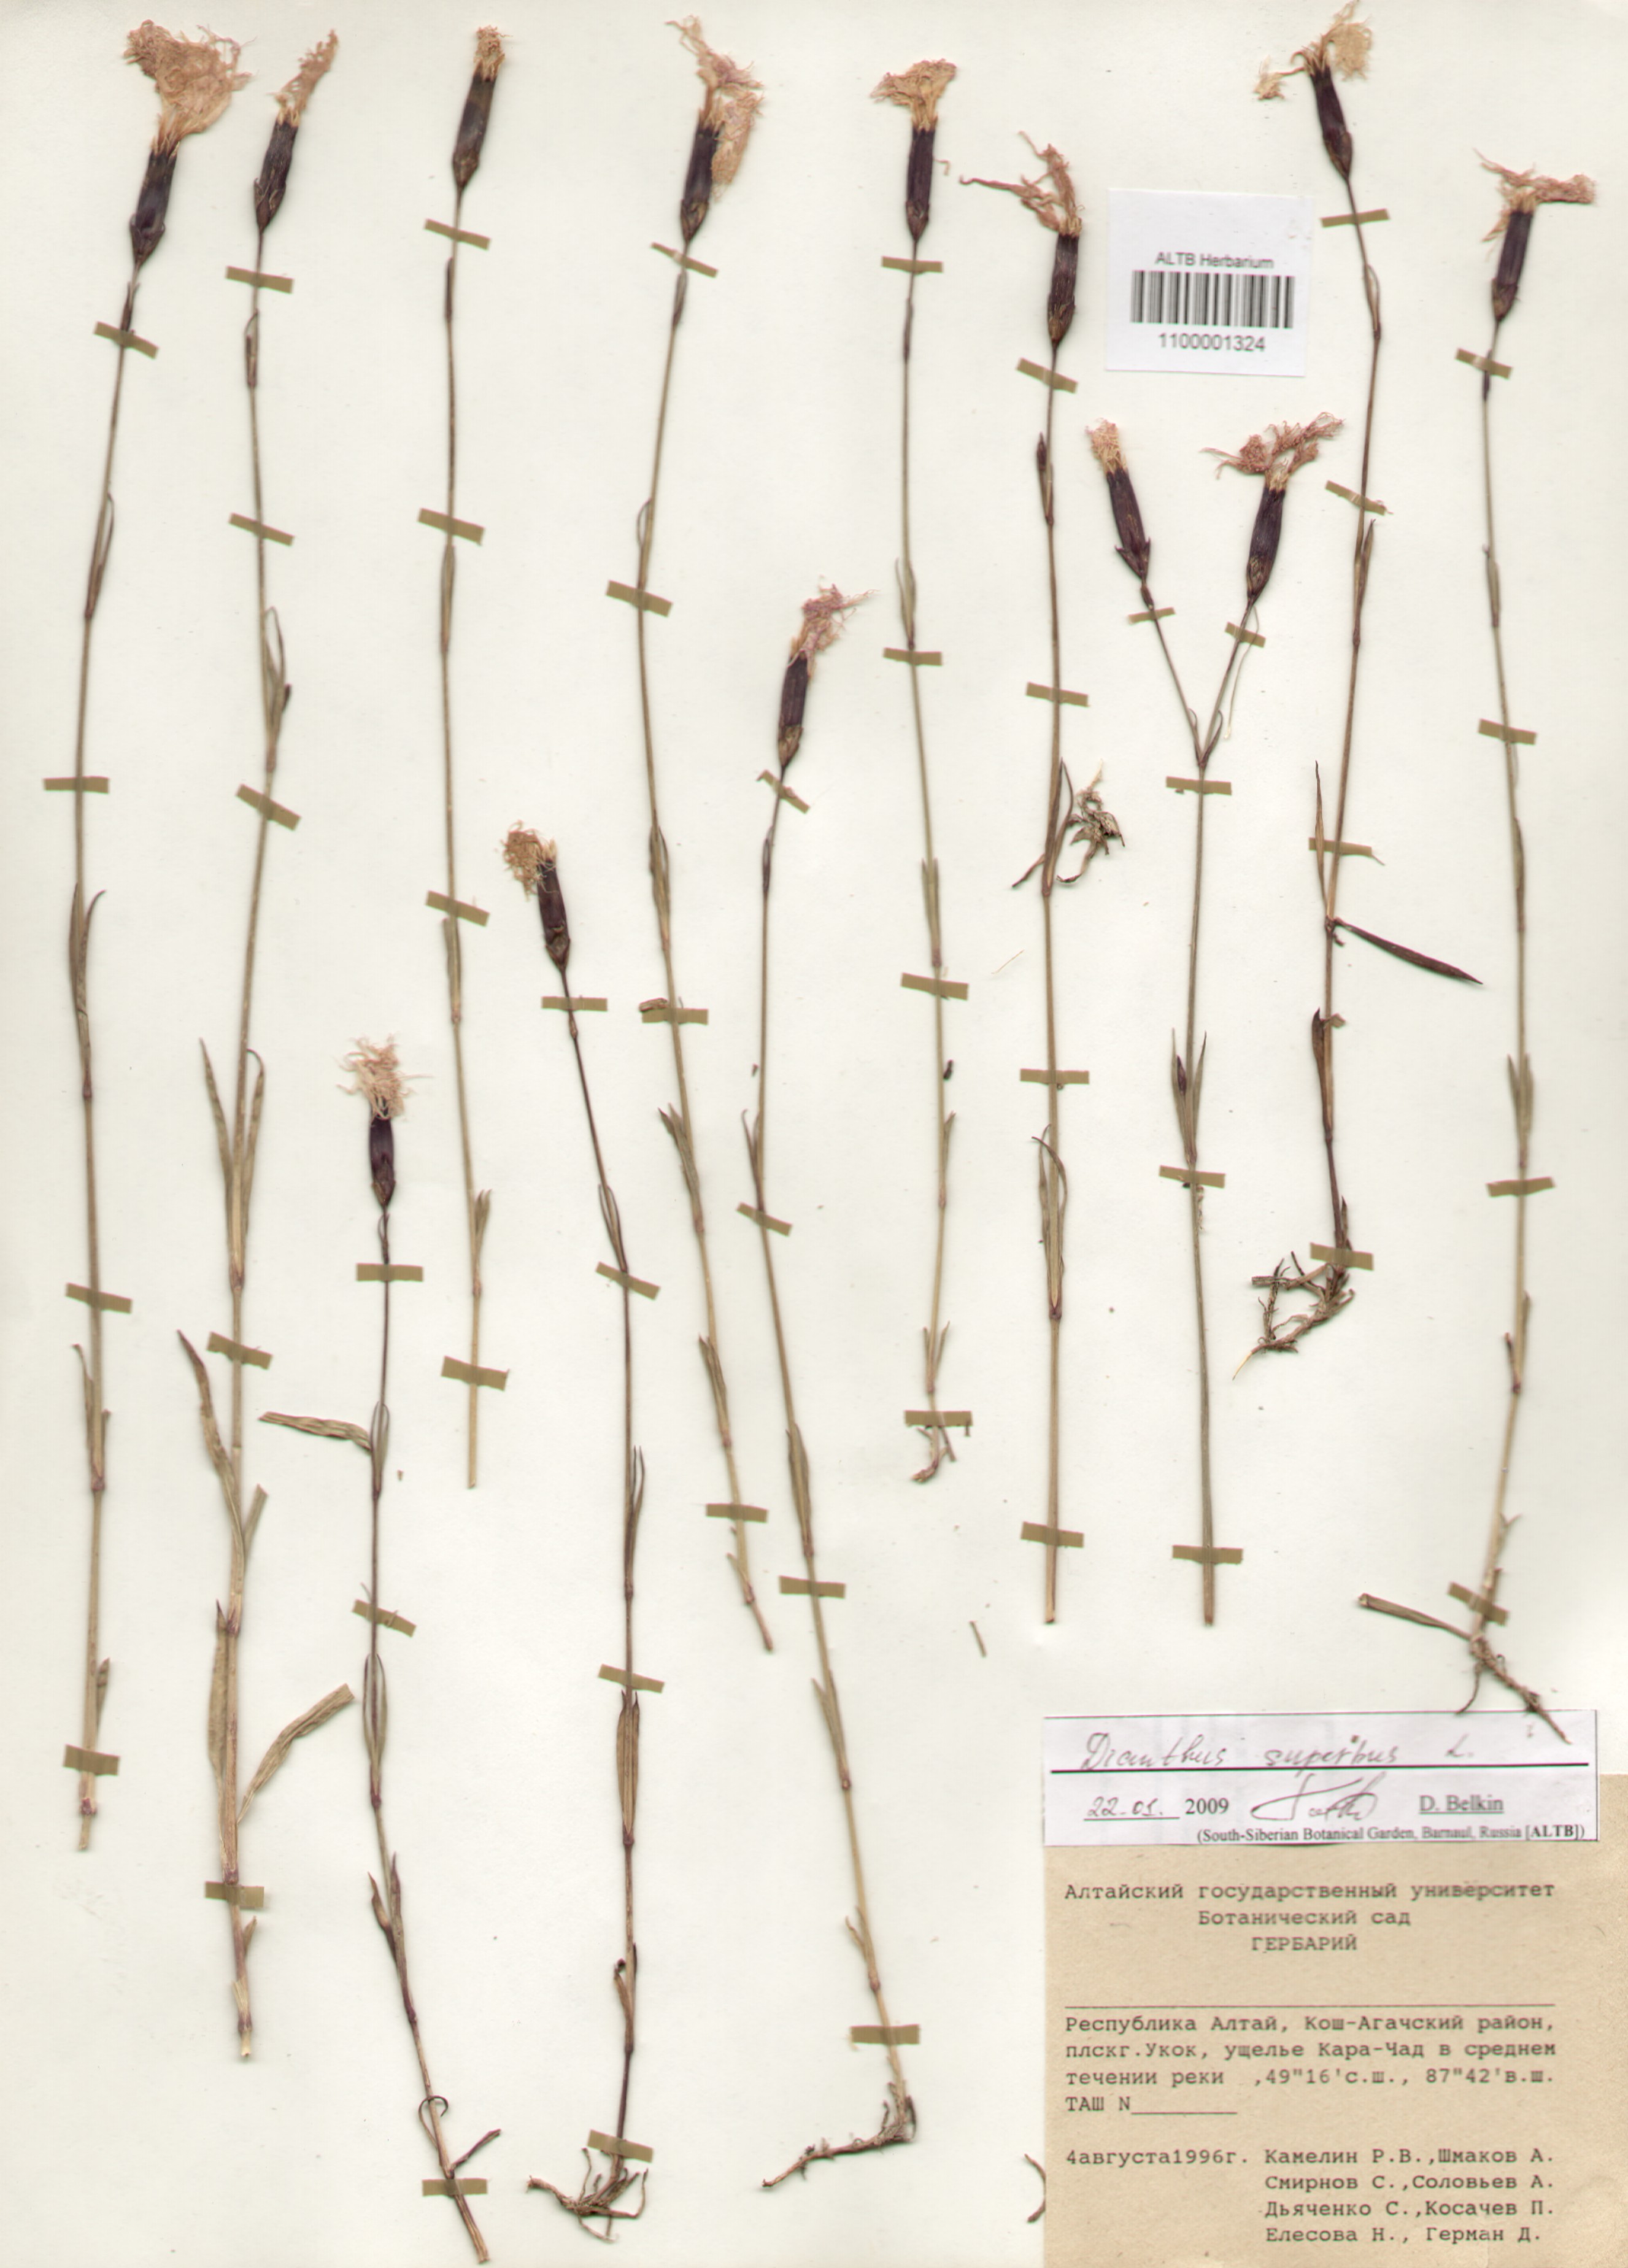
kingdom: Plantae
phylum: Tracheophyta
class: Magnoliopsida
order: Caryophyllales
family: Caryophyllaceae
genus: Dianthus
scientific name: Dianthus superbus
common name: Fringed pink
